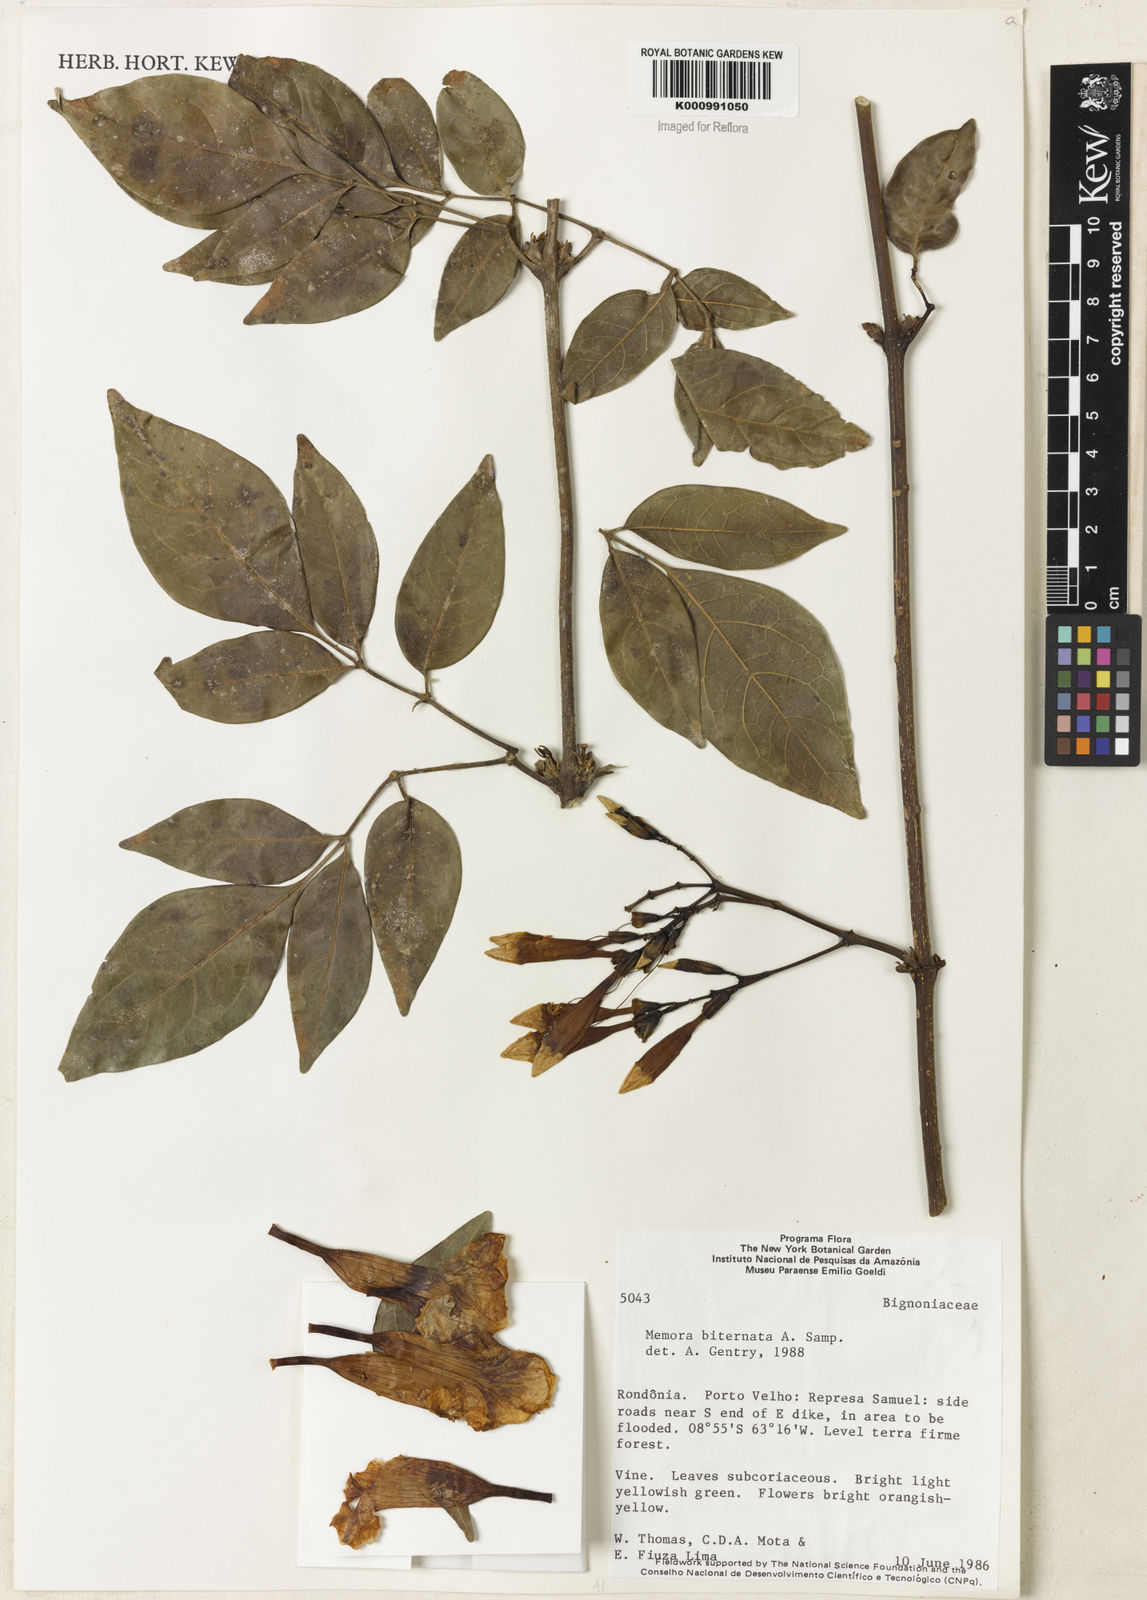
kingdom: Plantae
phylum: Tracheophyta
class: Magnoliopsida
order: Lamiales
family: Bignoniaceae
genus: Adenocalymma
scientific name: Adenocalymma biternatum
